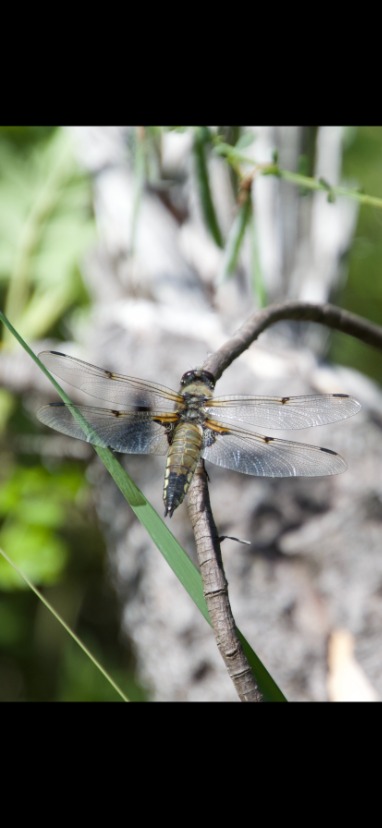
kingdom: Animalia
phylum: Arthropoda
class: Insecta
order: Odonata
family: Libellulidae
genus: Libellula
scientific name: Libellula quadrimaculata
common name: Fireplettet libel
